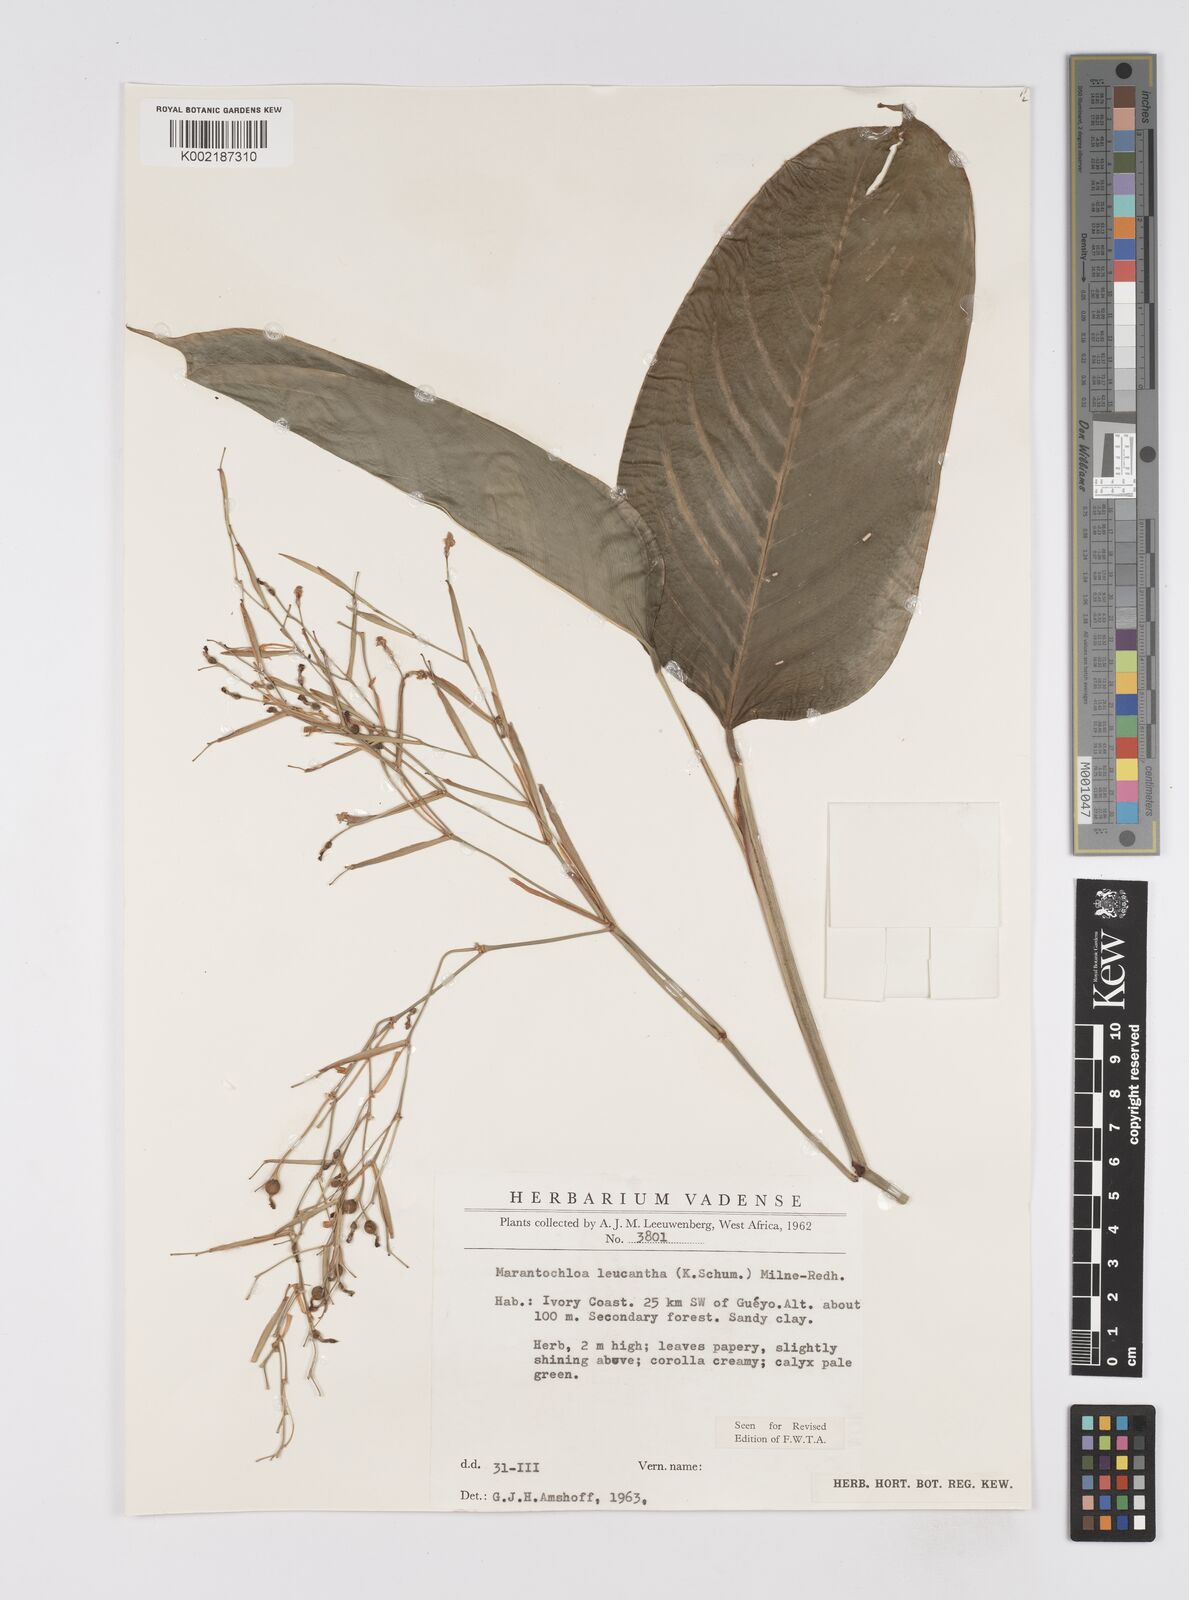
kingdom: Plantae
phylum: Tracheophyta
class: Liliopsida
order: Zingiberales
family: Marantaceae
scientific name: Marantaceae
